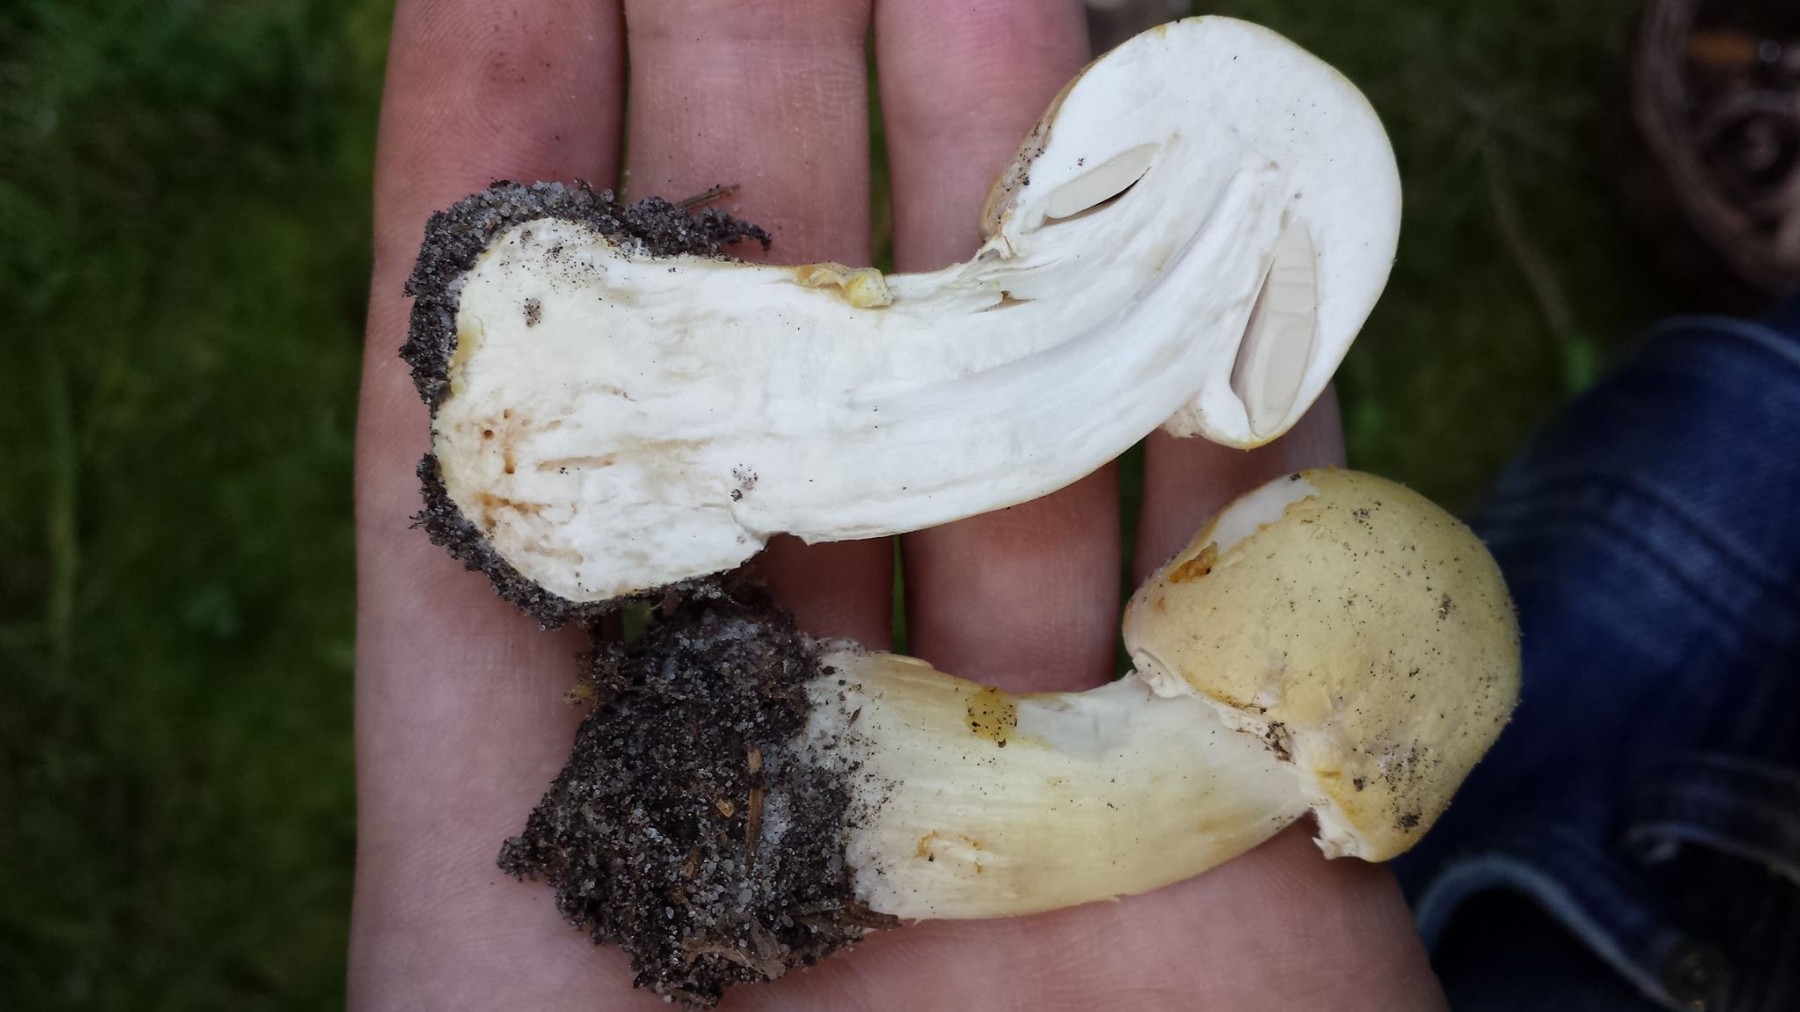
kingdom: Fungi
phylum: Basidiomycota
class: Agaricomycetes
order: Agaricales
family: Agaricaceae
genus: Agaricus
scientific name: Agaricus sylvicola
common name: skiveknoldet champignon
